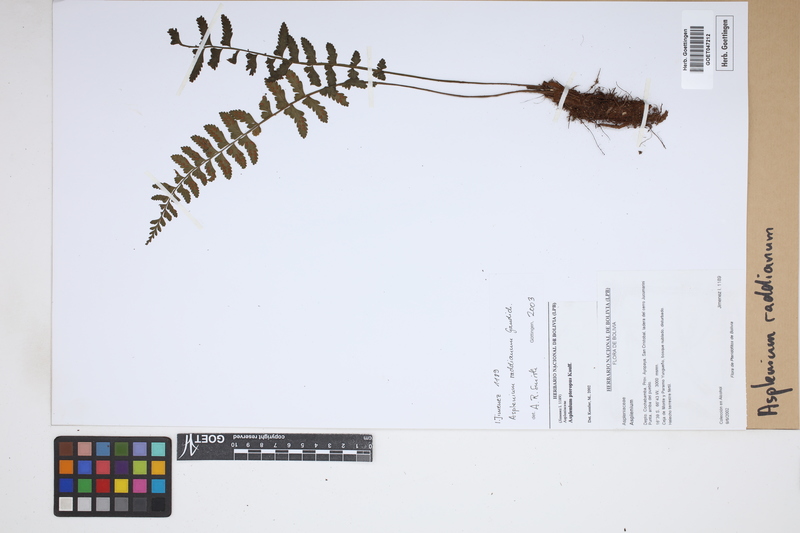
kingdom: Plantae
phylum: Tracheophyta
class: Polypodiopsida
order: Polypodiales
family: Aspleniaceae
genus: Asplenium
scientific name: Asplenium raddianum
